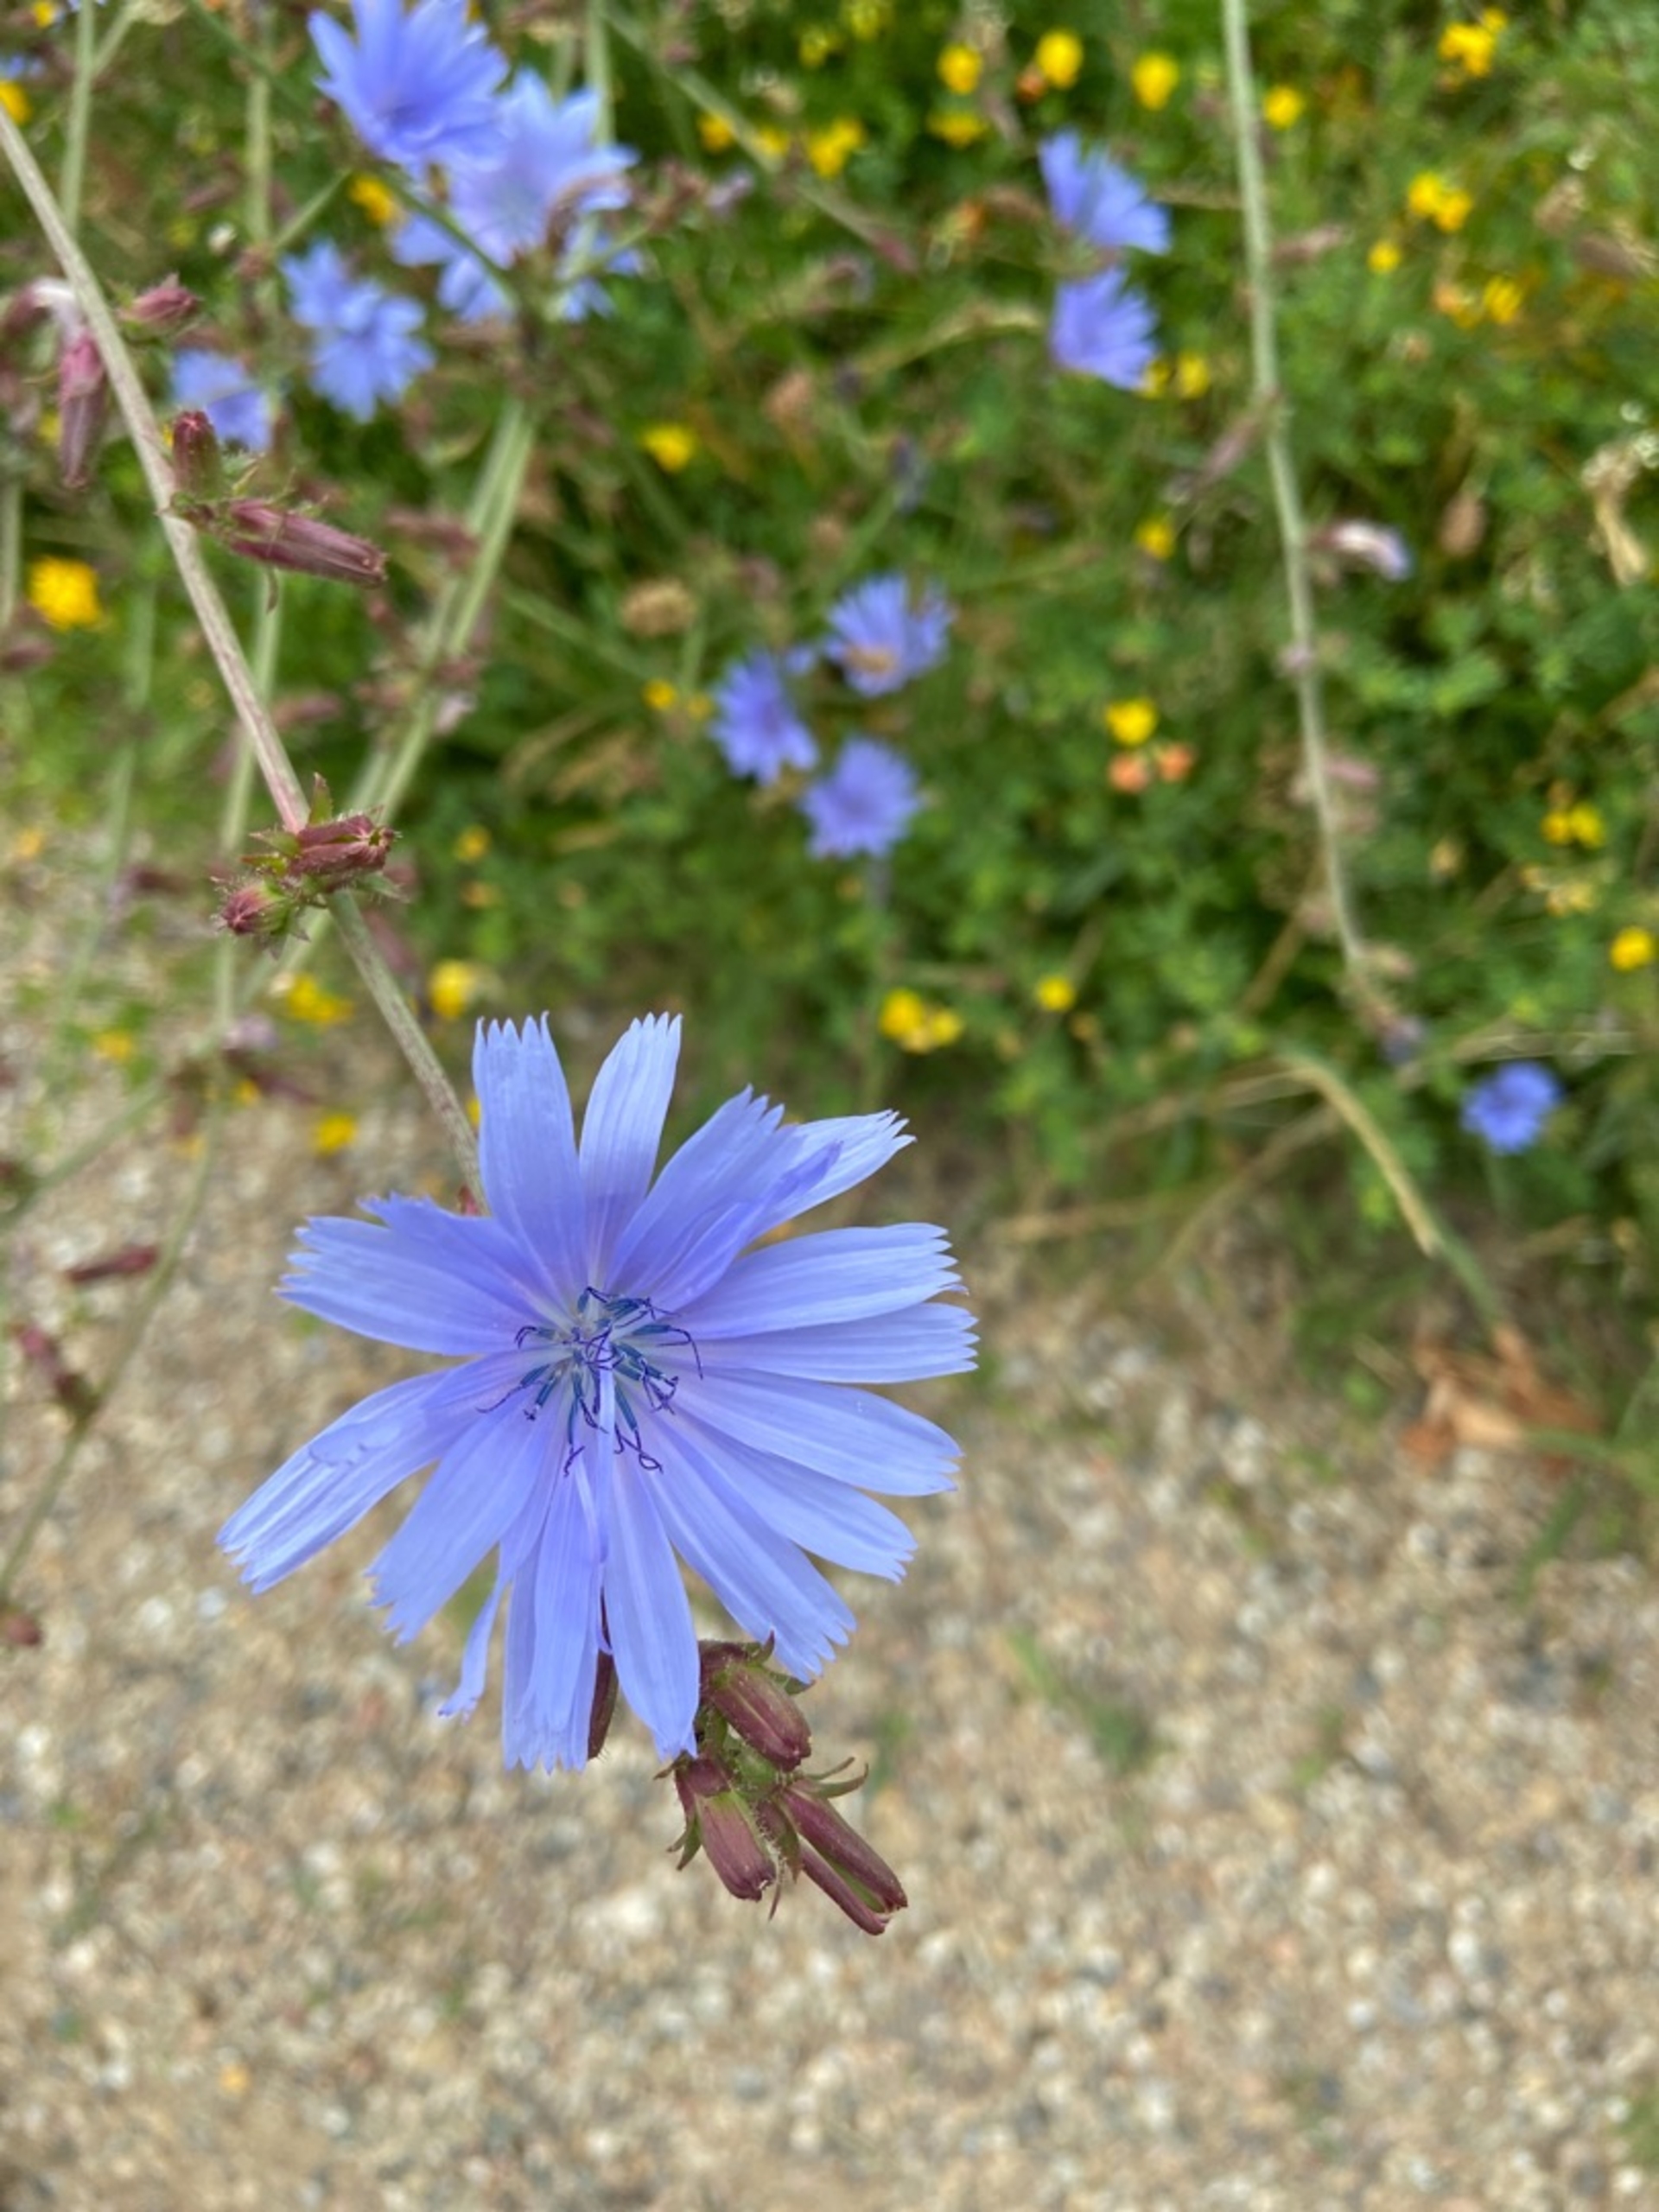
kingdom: Plantae
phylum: Tracheophyta
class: Magnoliopsida
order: Asterales
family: Asteraceae
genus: Cichorium
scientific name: Cichorium intybus
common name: Cikorie
